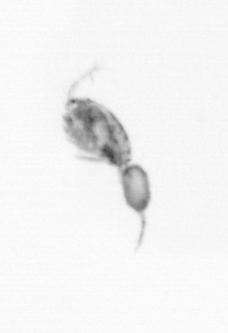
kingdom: Animalia
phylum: Arthropoda
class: Copepoda
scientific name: Copepoda
